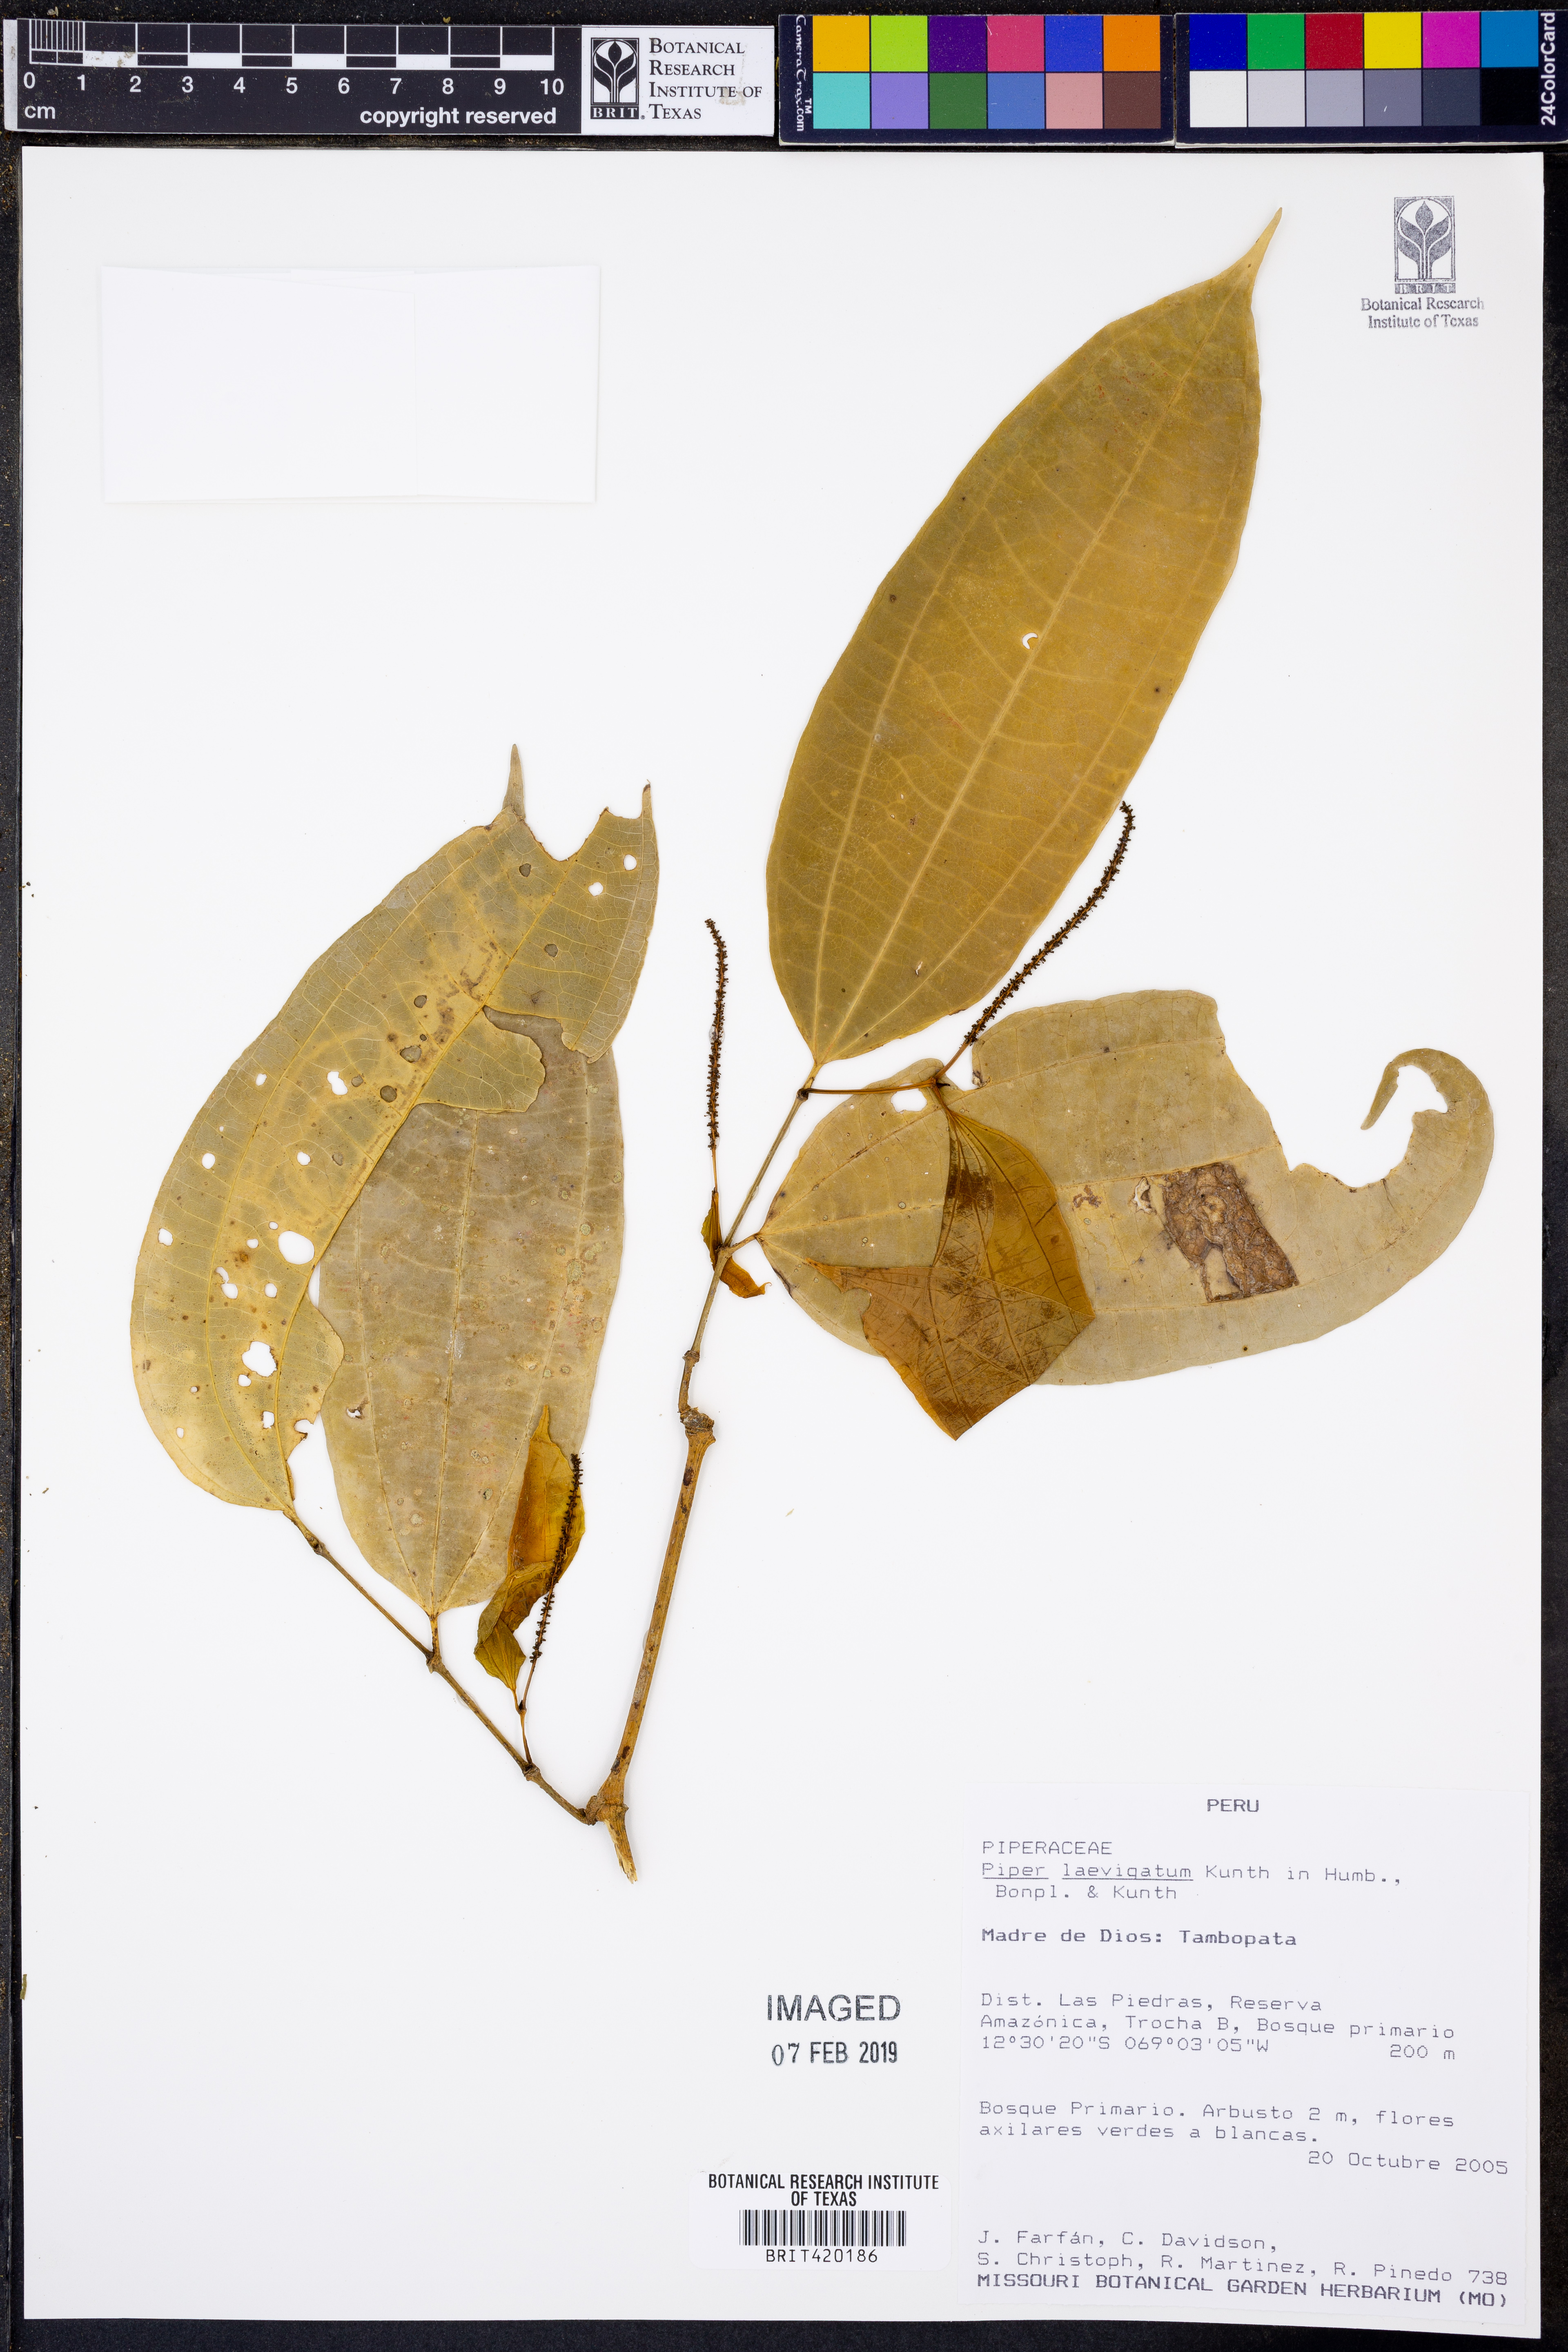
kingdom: Plantae
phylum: Tracheophyta
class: Magnoliopsida
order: Piperales
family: Piperaceae
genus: Piper
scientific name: Piper laevigatum
